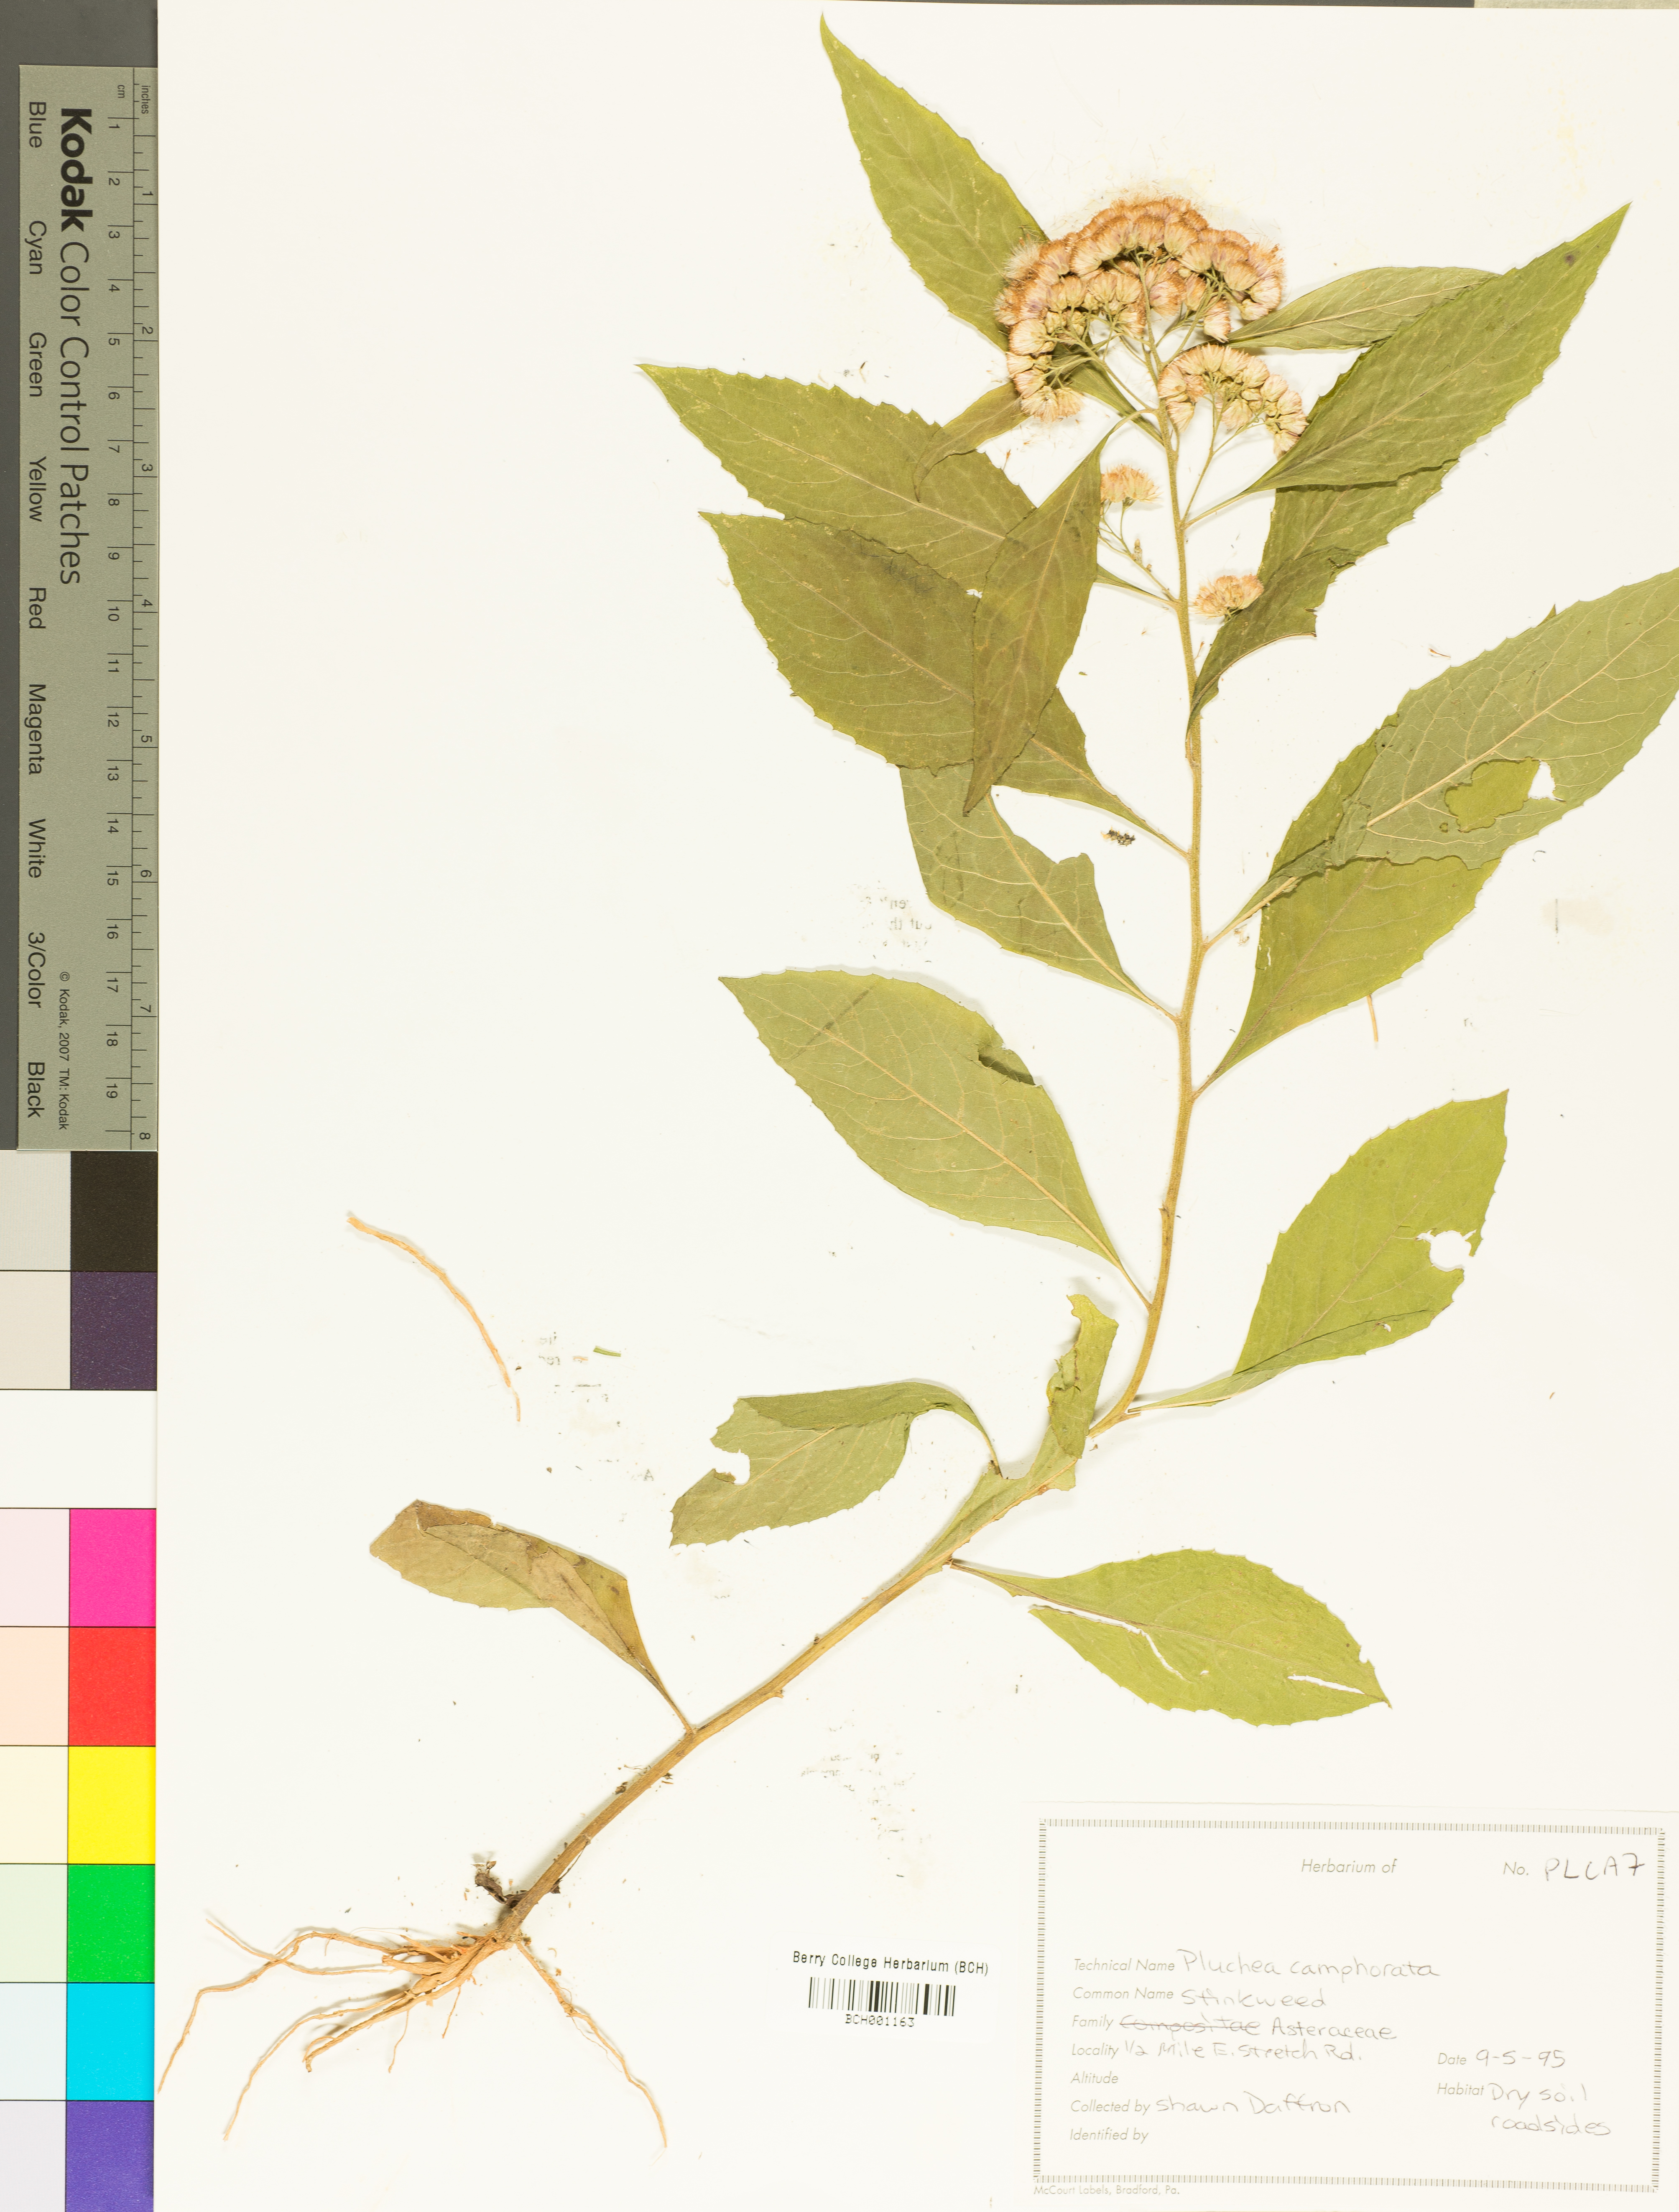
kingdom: Plantae
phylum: Tracheophyta
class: Magnoliopsida
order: Asterales
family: Asteraceae
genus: Pluchea
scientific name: Pluchea camphorata
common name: Camphor pluchea
